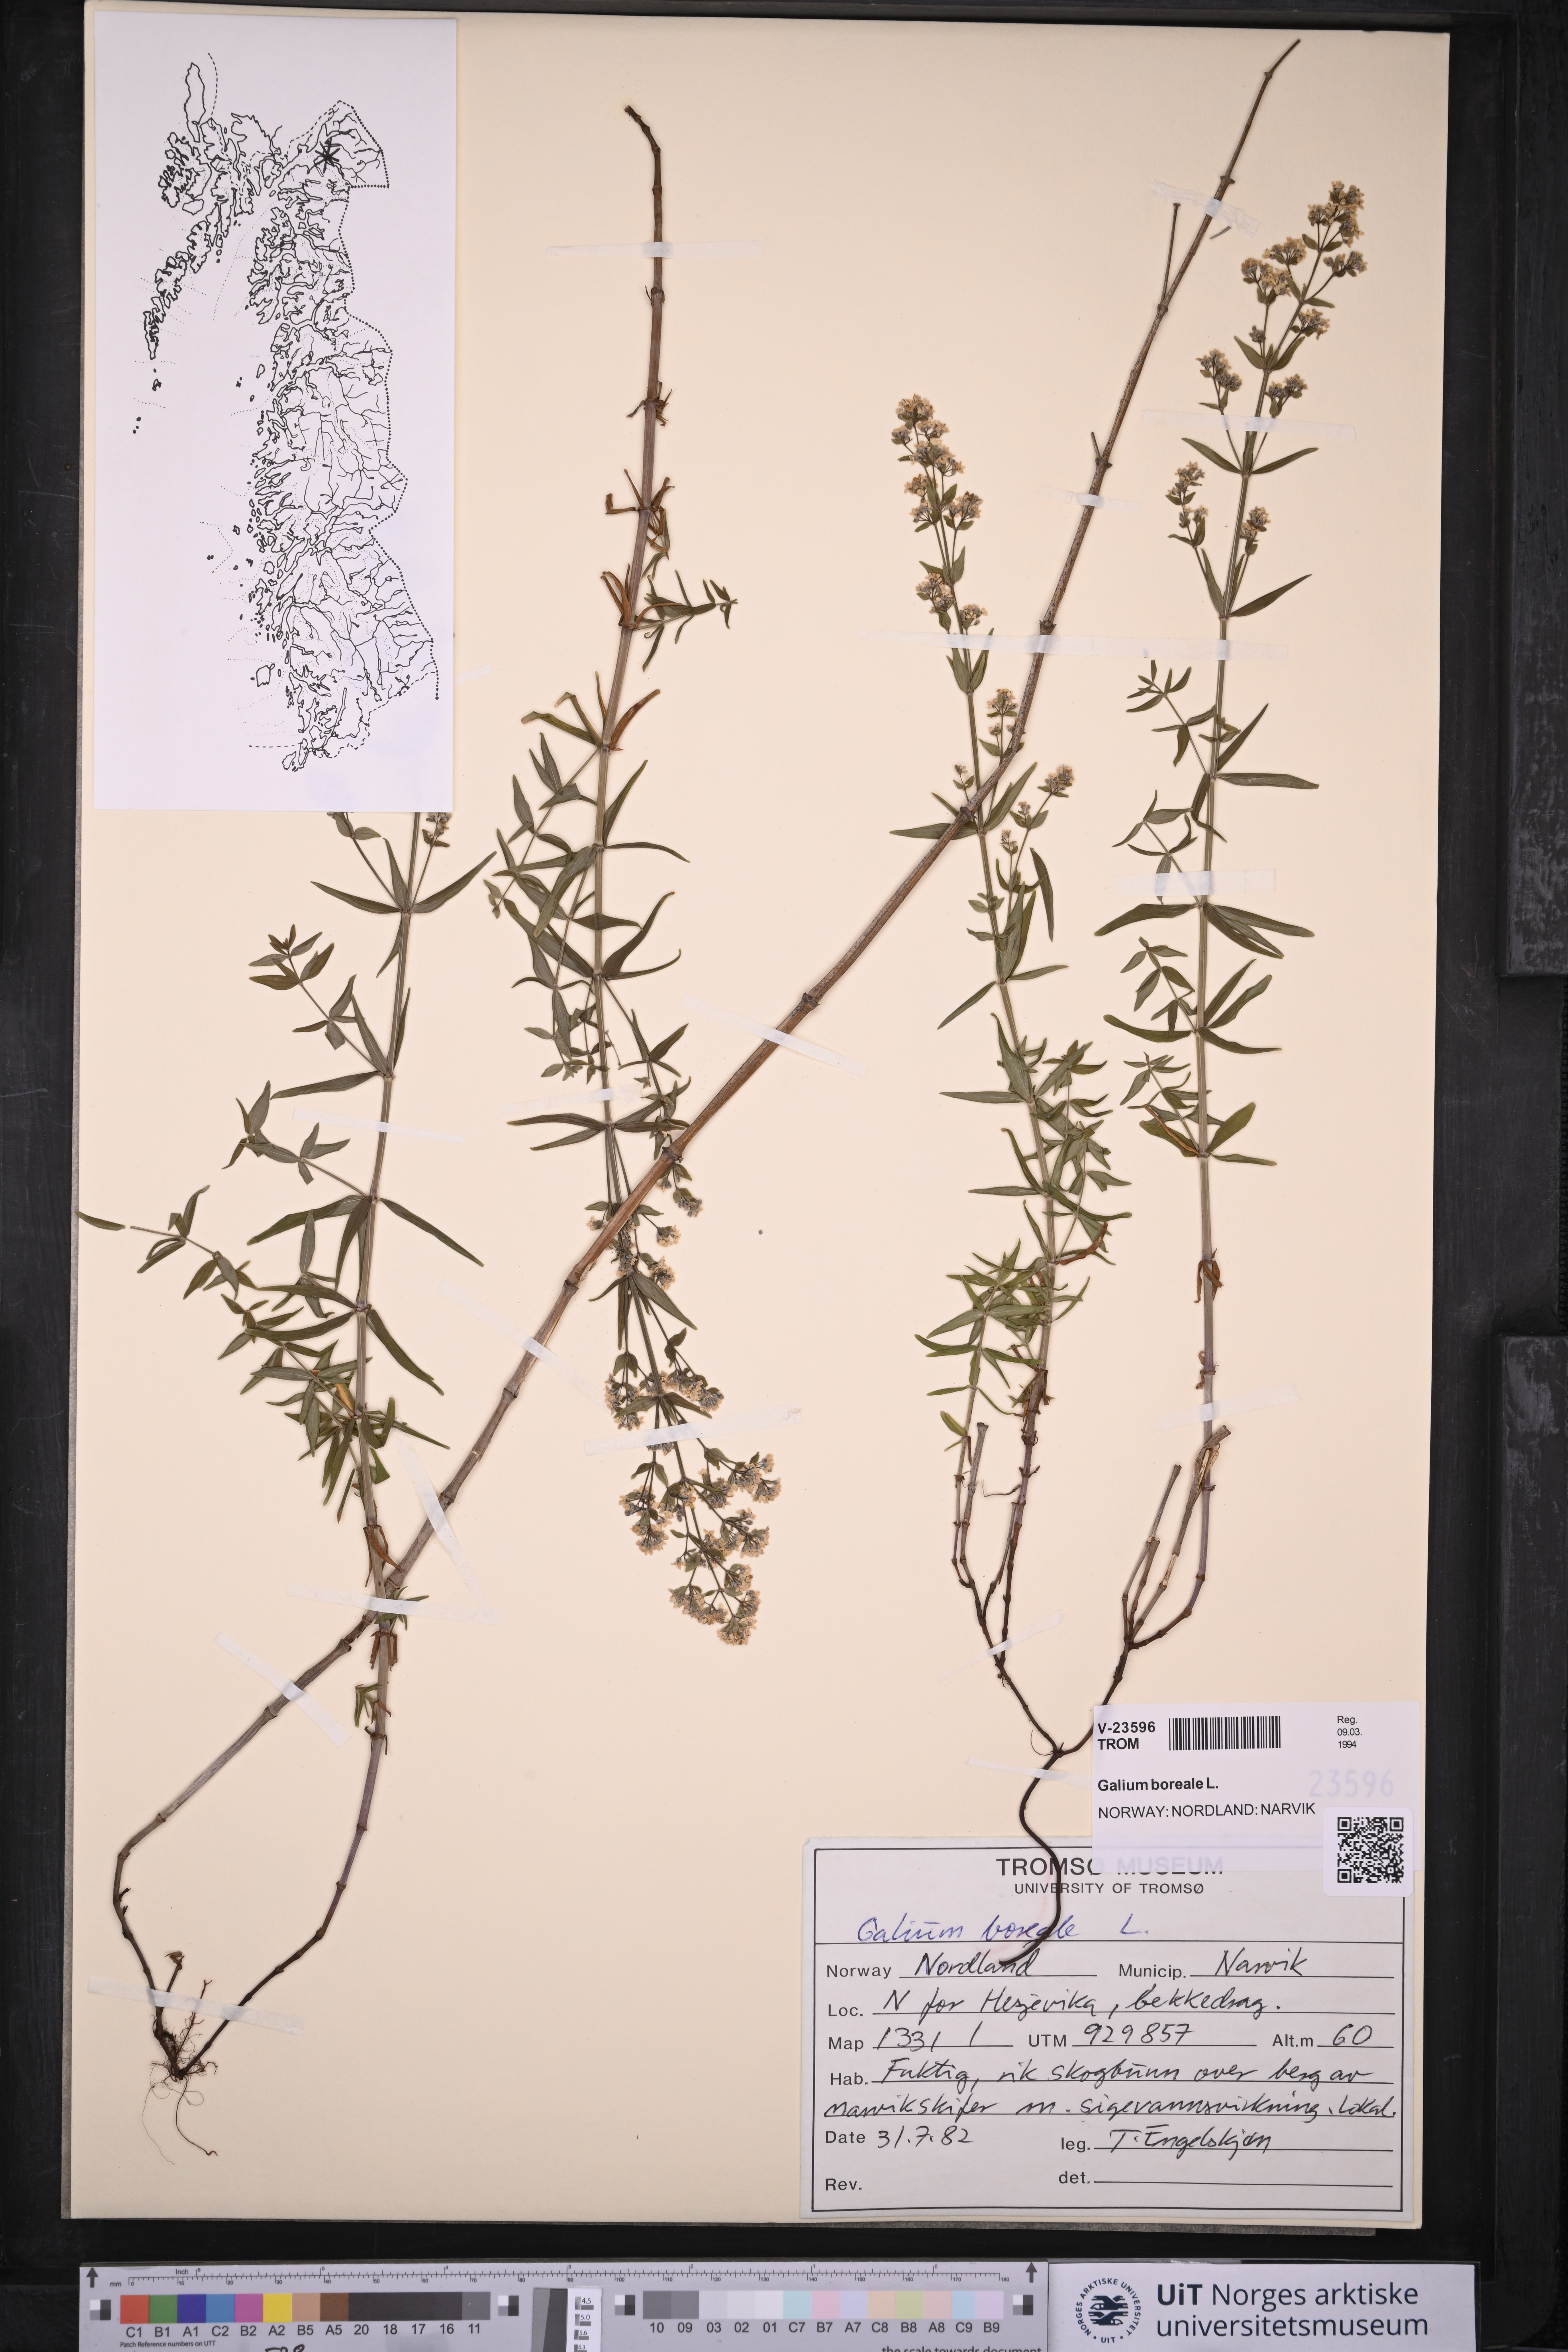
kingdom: Plantae
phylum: Tracheophyta
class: Magnoliopsida
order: Gentianales
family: Rubiaceae
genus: Galium
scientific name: Galium boreale
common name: Northern bedstraw
